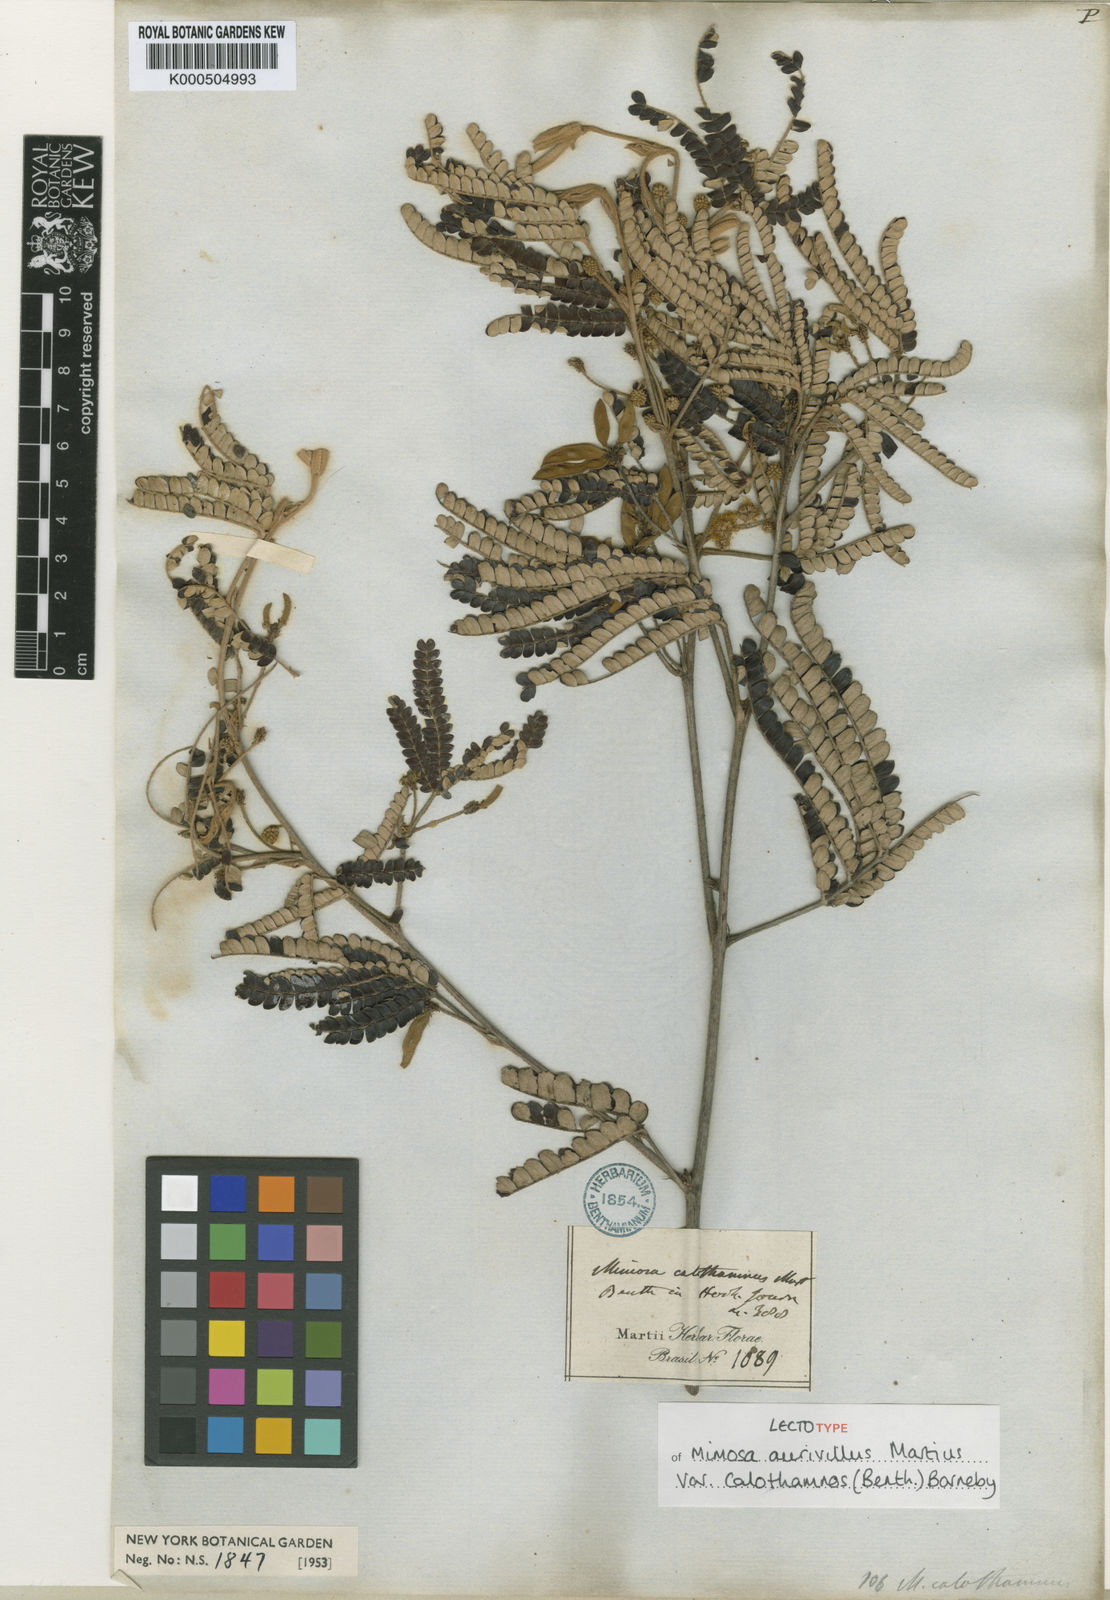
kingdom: Plantae
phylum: Tracheophyta
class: Magnoliopsida
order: Fabales
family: Fabaceae
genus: Mimosa
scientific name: Mimosa aurivillus
